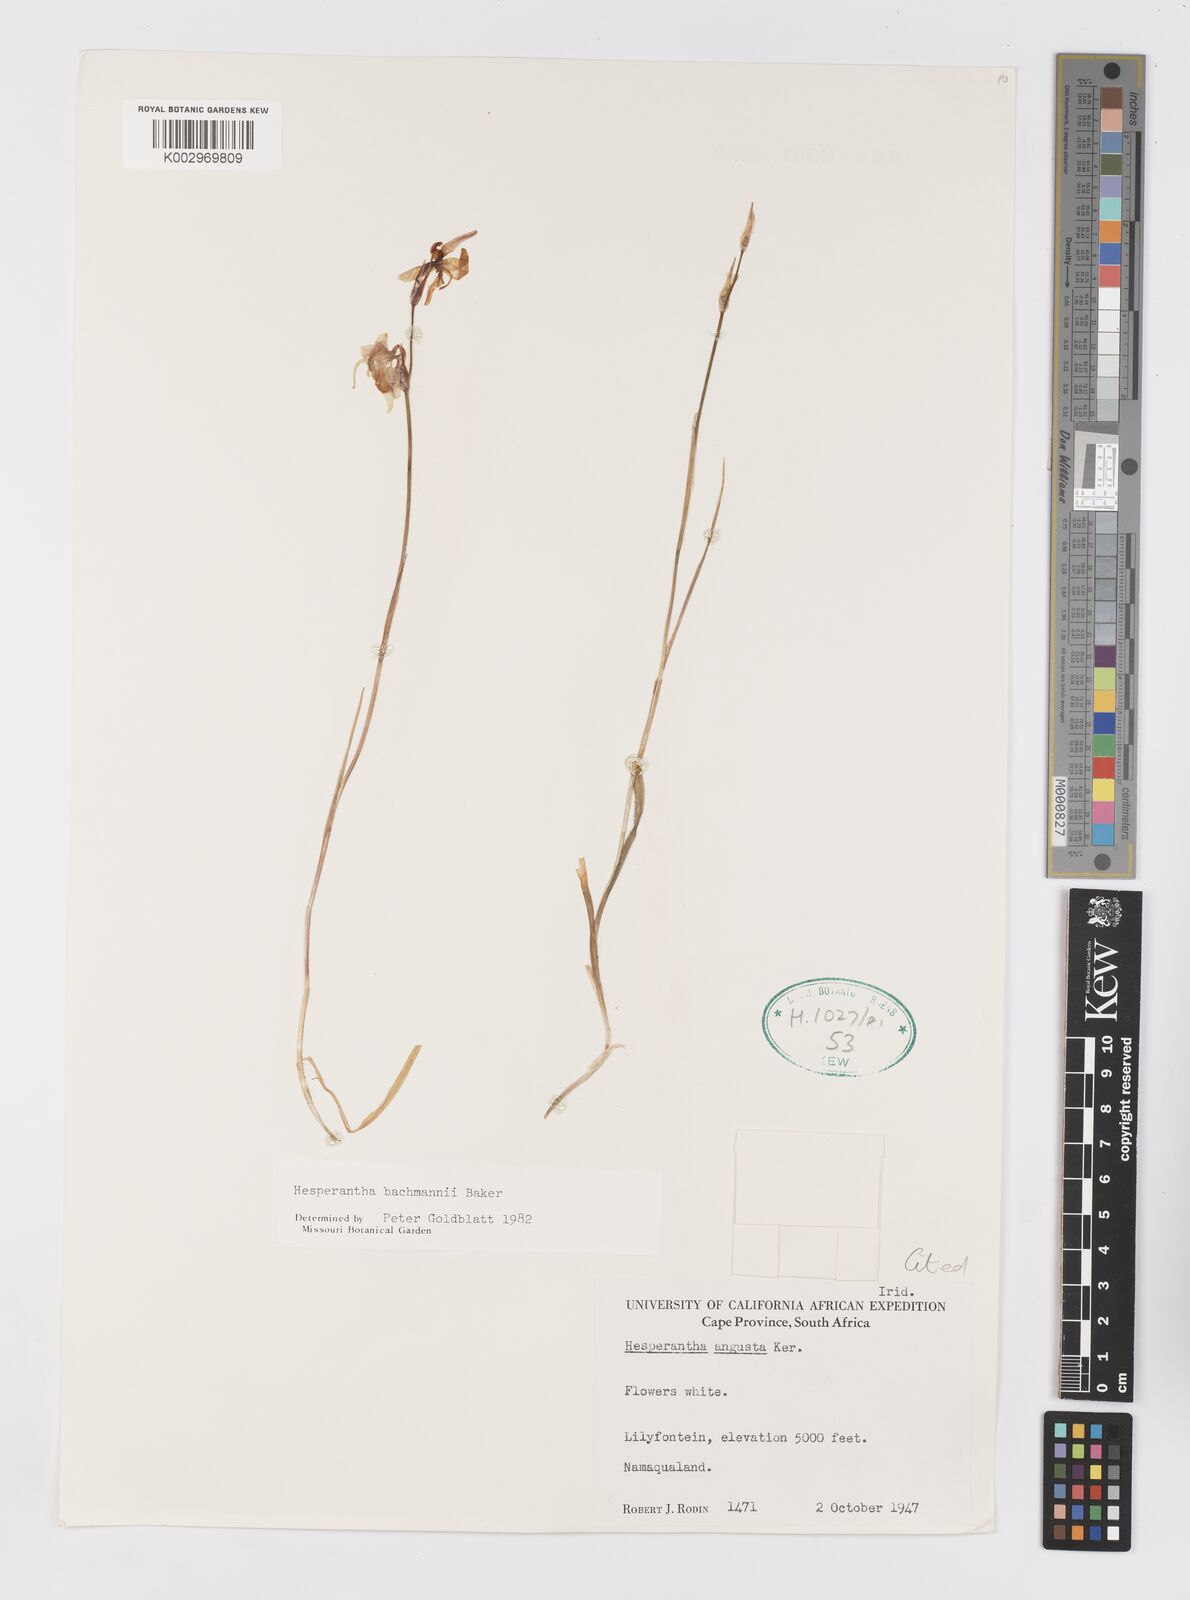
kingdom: Plantae
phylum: Tracheophyta
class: Liliopsida
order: Asparagales
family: Iridaceae
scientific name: Iridaceae
